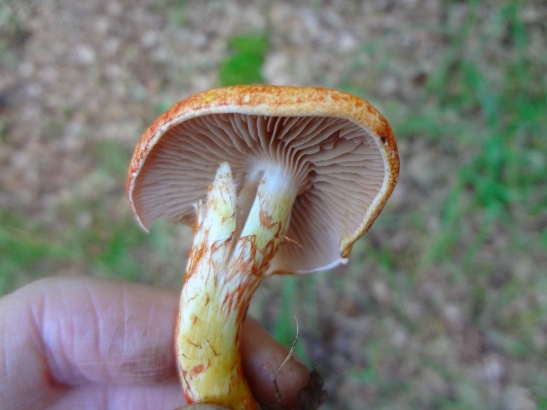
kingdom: Fungi
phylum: Basidiomycota
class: Agaricomycetes
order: Agaricales
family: Cortinariaceae
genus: Cortinarius
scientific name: Cortinarius bolaris
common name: cinnoberskællet slørhat
